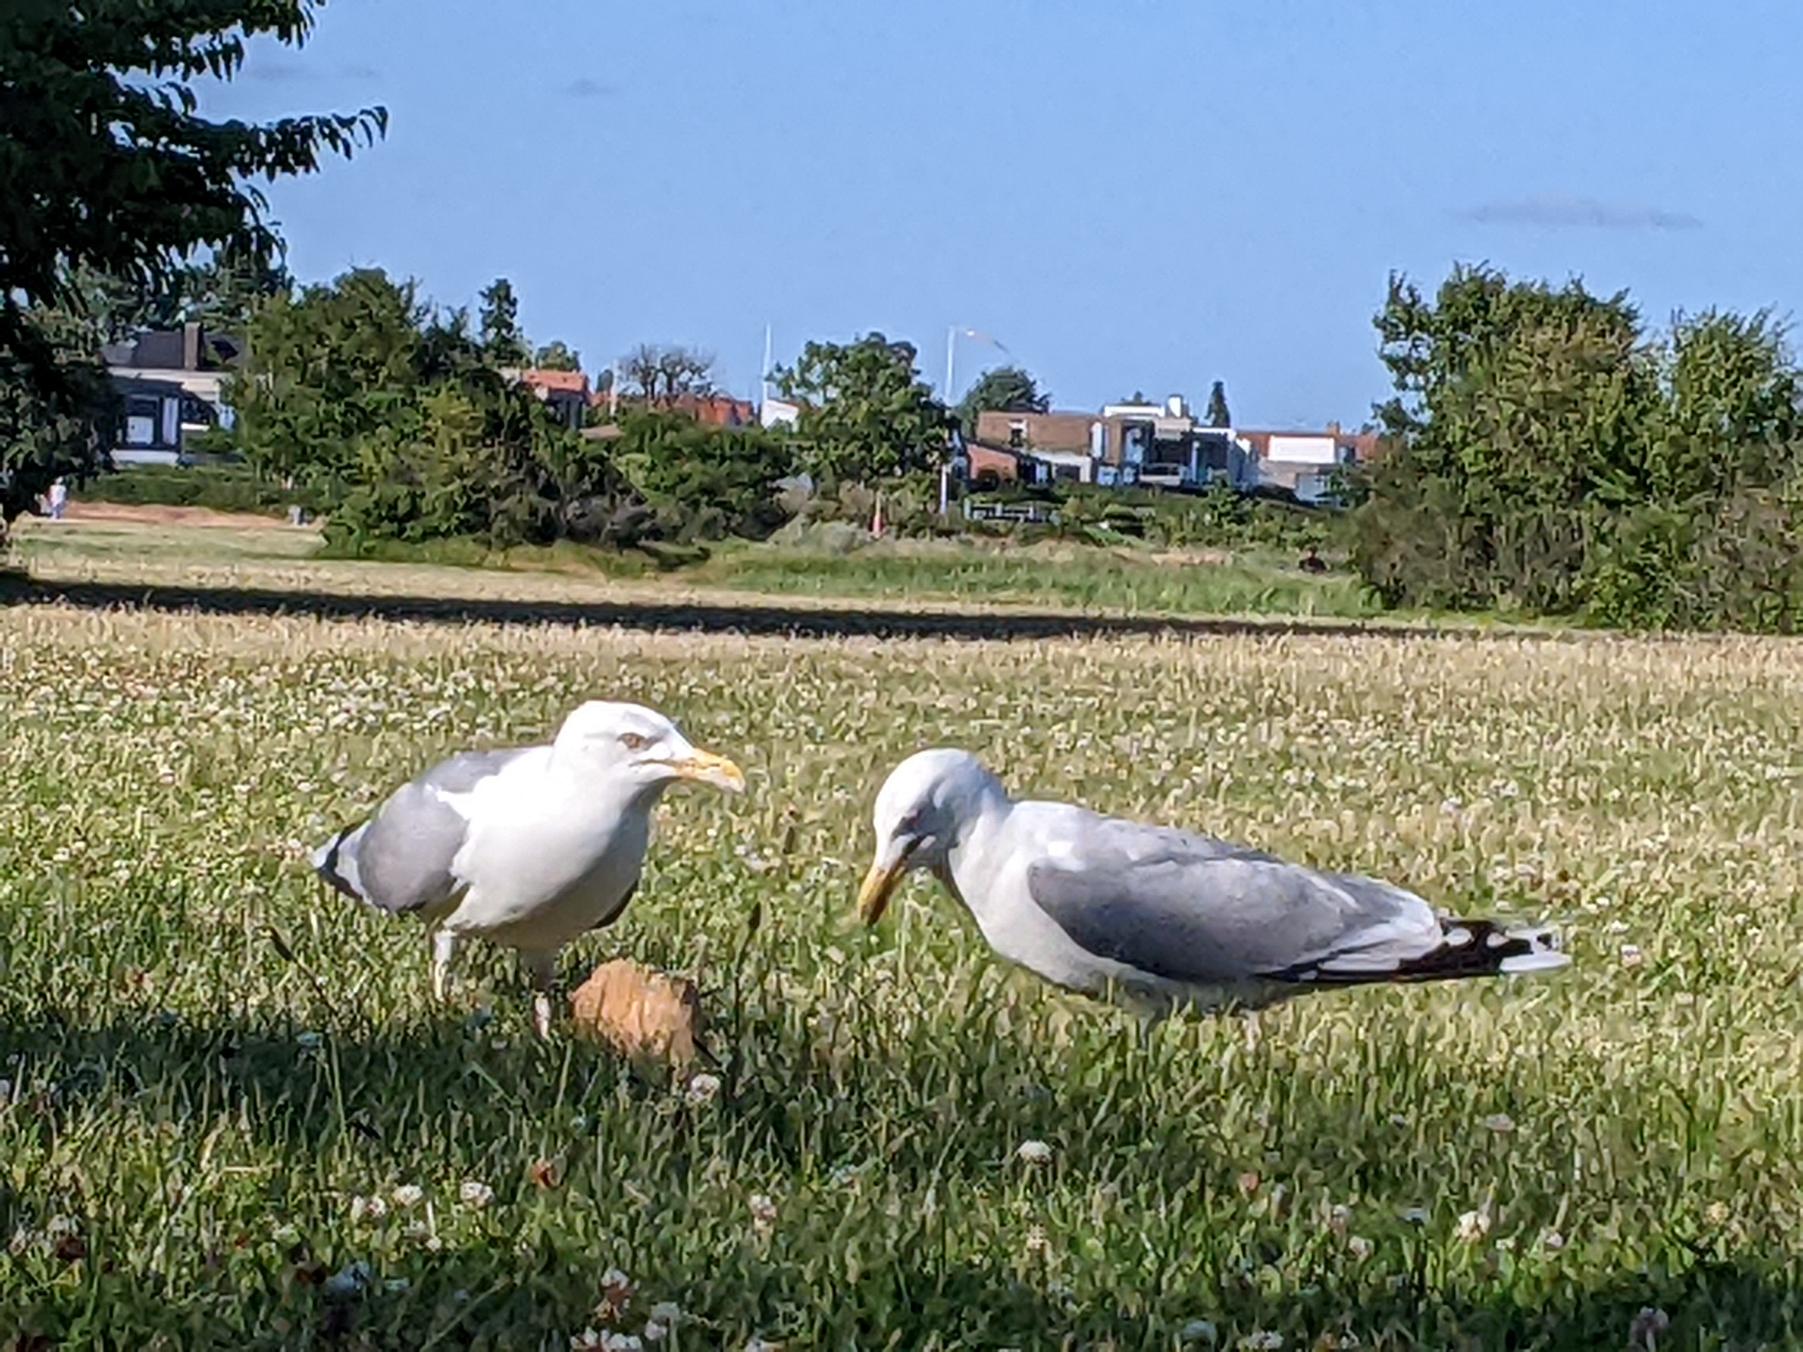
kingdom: Animalia
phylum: Chordata
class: Aves
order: Charadriiformes
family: Laridae
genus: Larus
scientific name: Larus argentatus
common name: Sølvmåge
